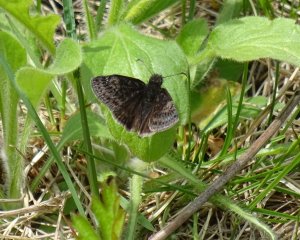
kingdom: Animalia
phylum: Arthropoda
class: Insecta
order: Lepidoptera
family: Hesperiidae
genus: Gesta
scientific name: Gesta
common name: Columbine Duskywing
